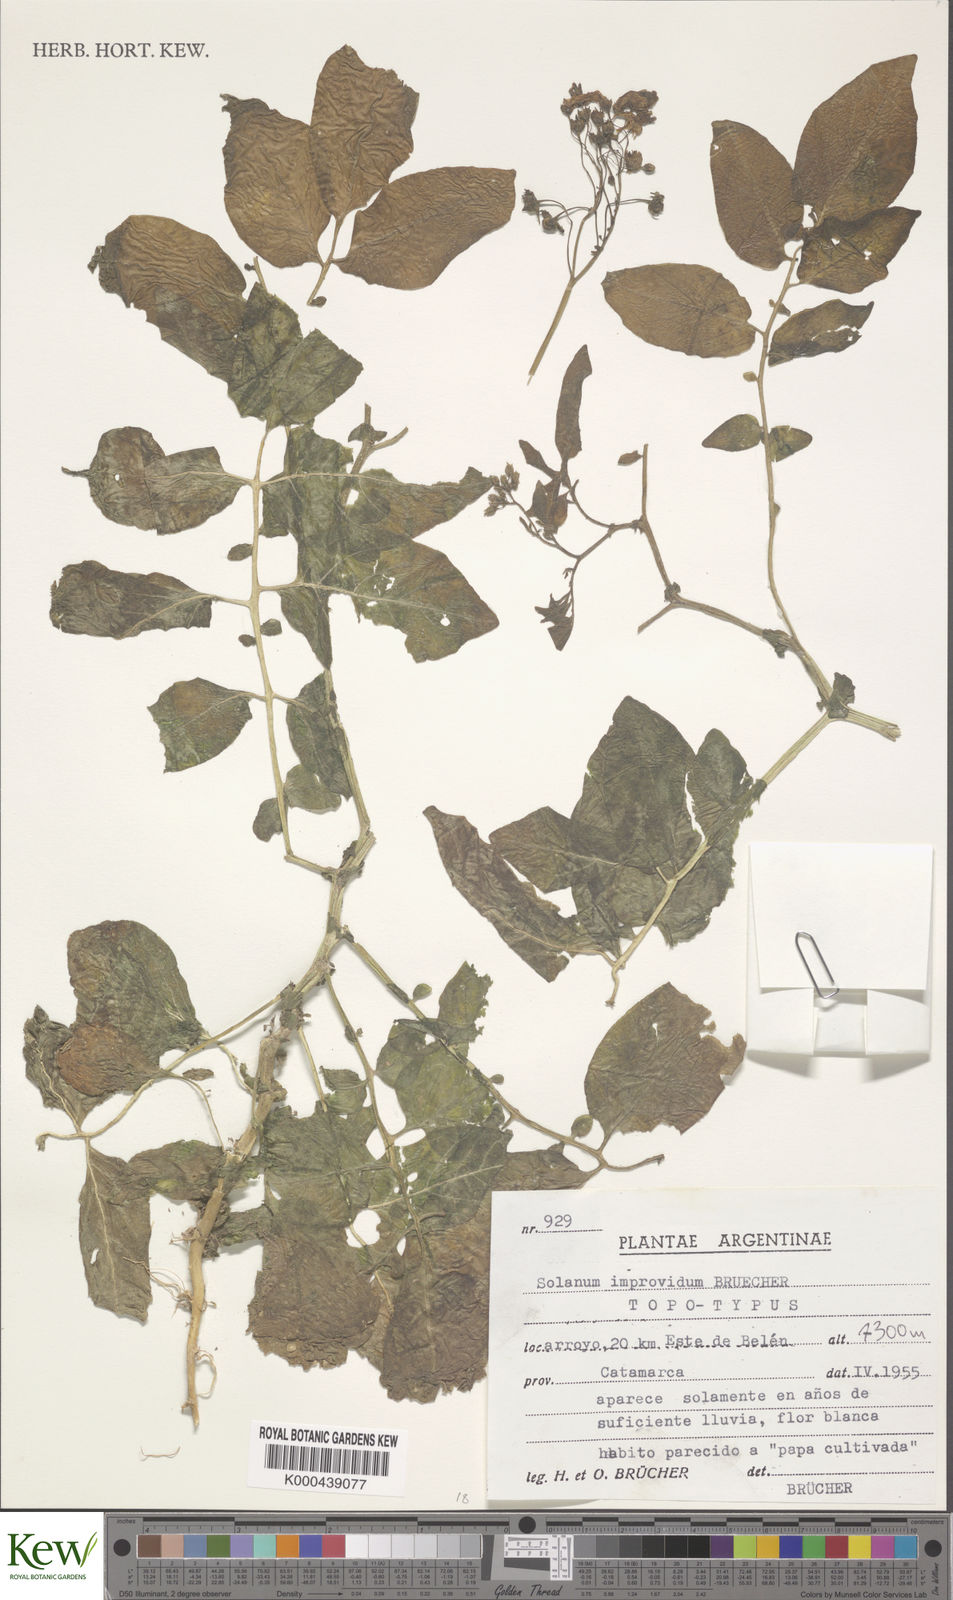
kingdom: Plantae
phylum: Tracheophyta
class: Magnoliopsida
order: Solanales
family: Solanaceae
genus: Solanum
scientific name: Solanum
